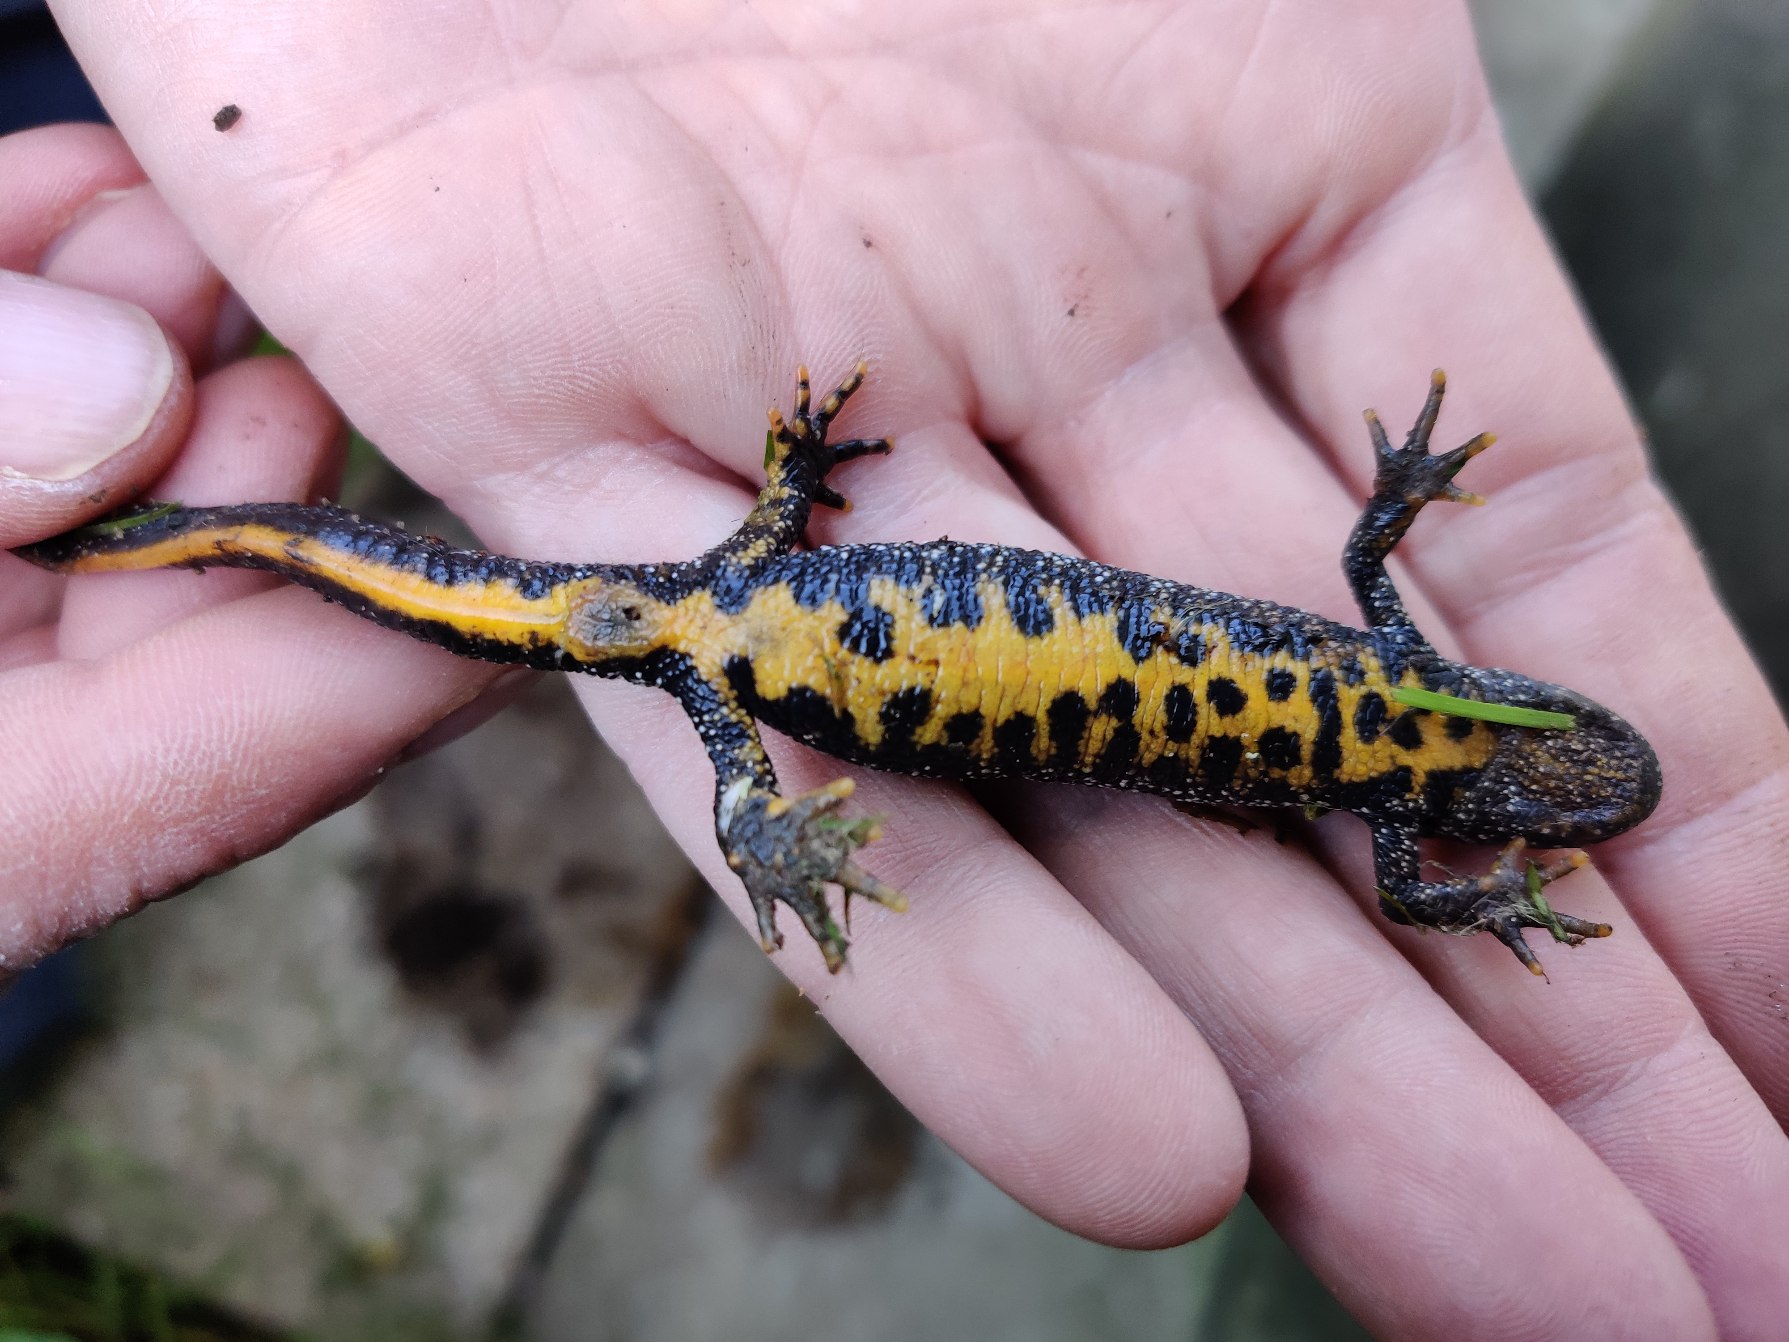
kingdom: Animalia
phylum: Chordata
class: Amphibia
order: Caudata
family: Salamandridae
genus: Triturus
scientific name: Triturus cristatus
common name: Stor vandsalamander
